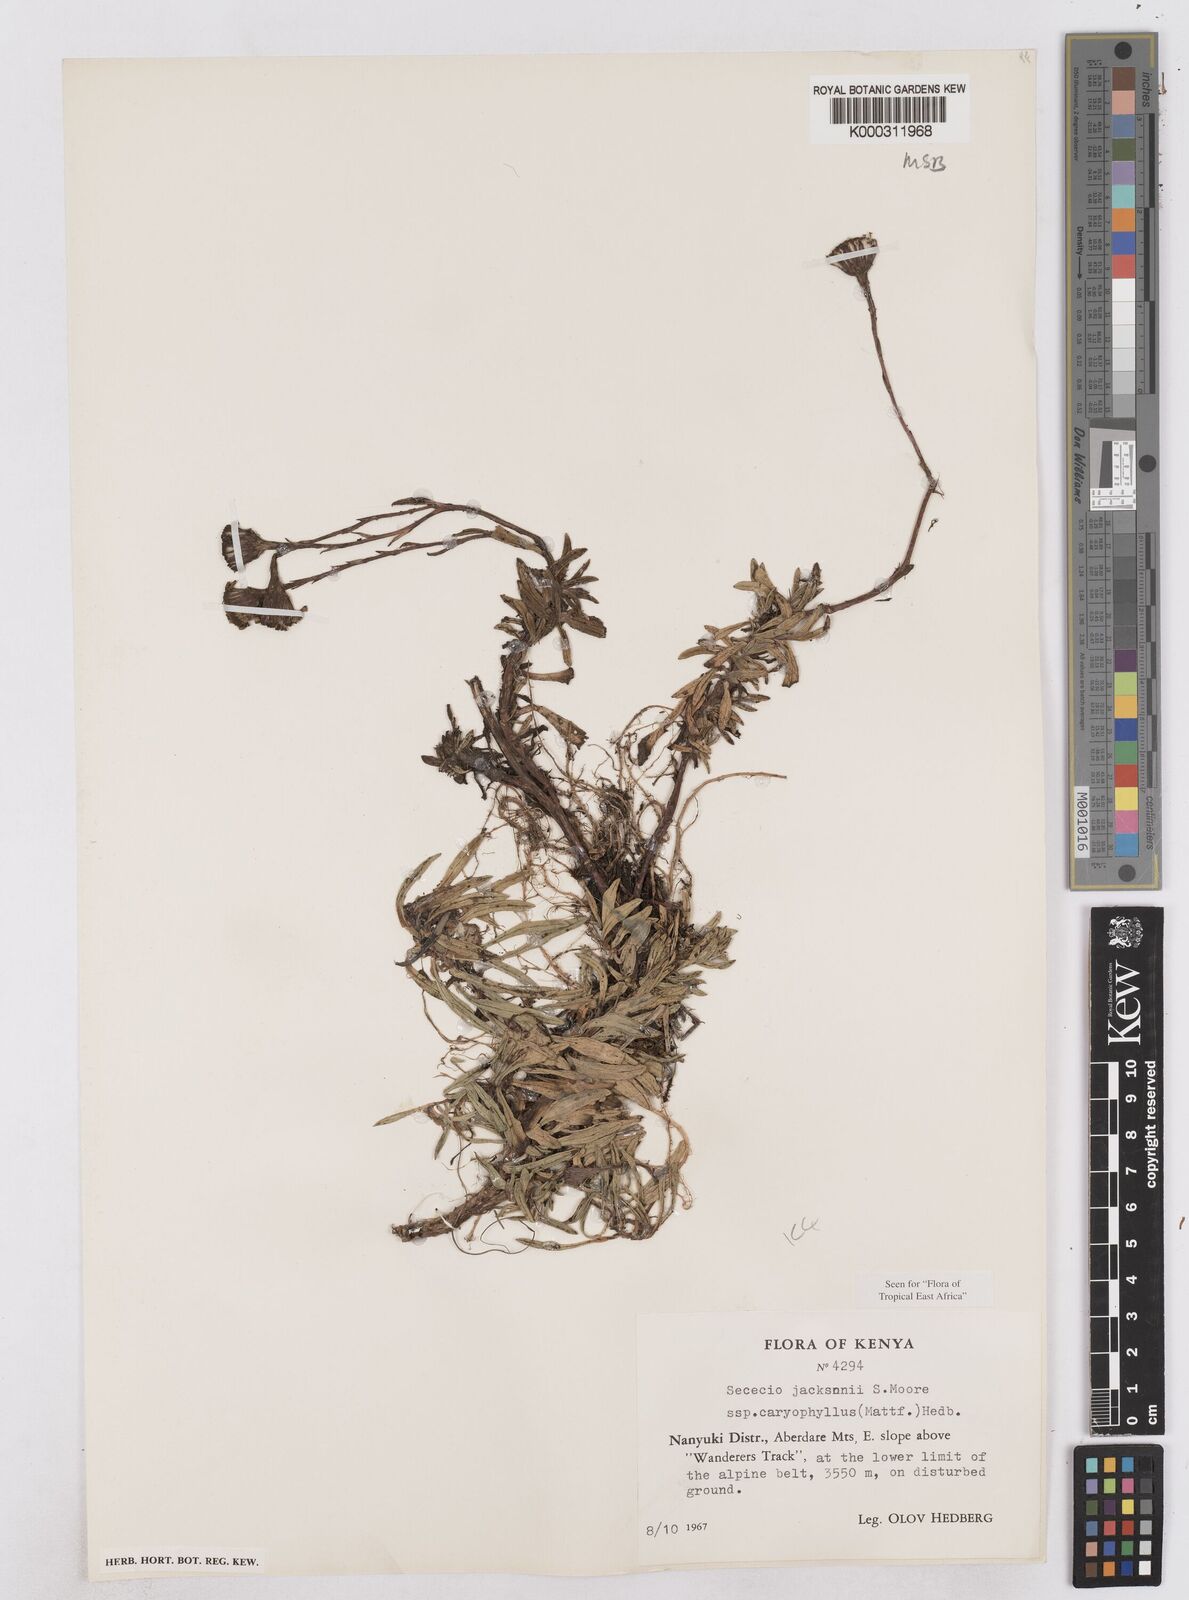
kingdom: Plantae
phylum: Tracheophyta
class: Magnoliopsida
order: Asterales
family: Asteraceae
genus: Senecio
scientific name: Senecio jacksonii
